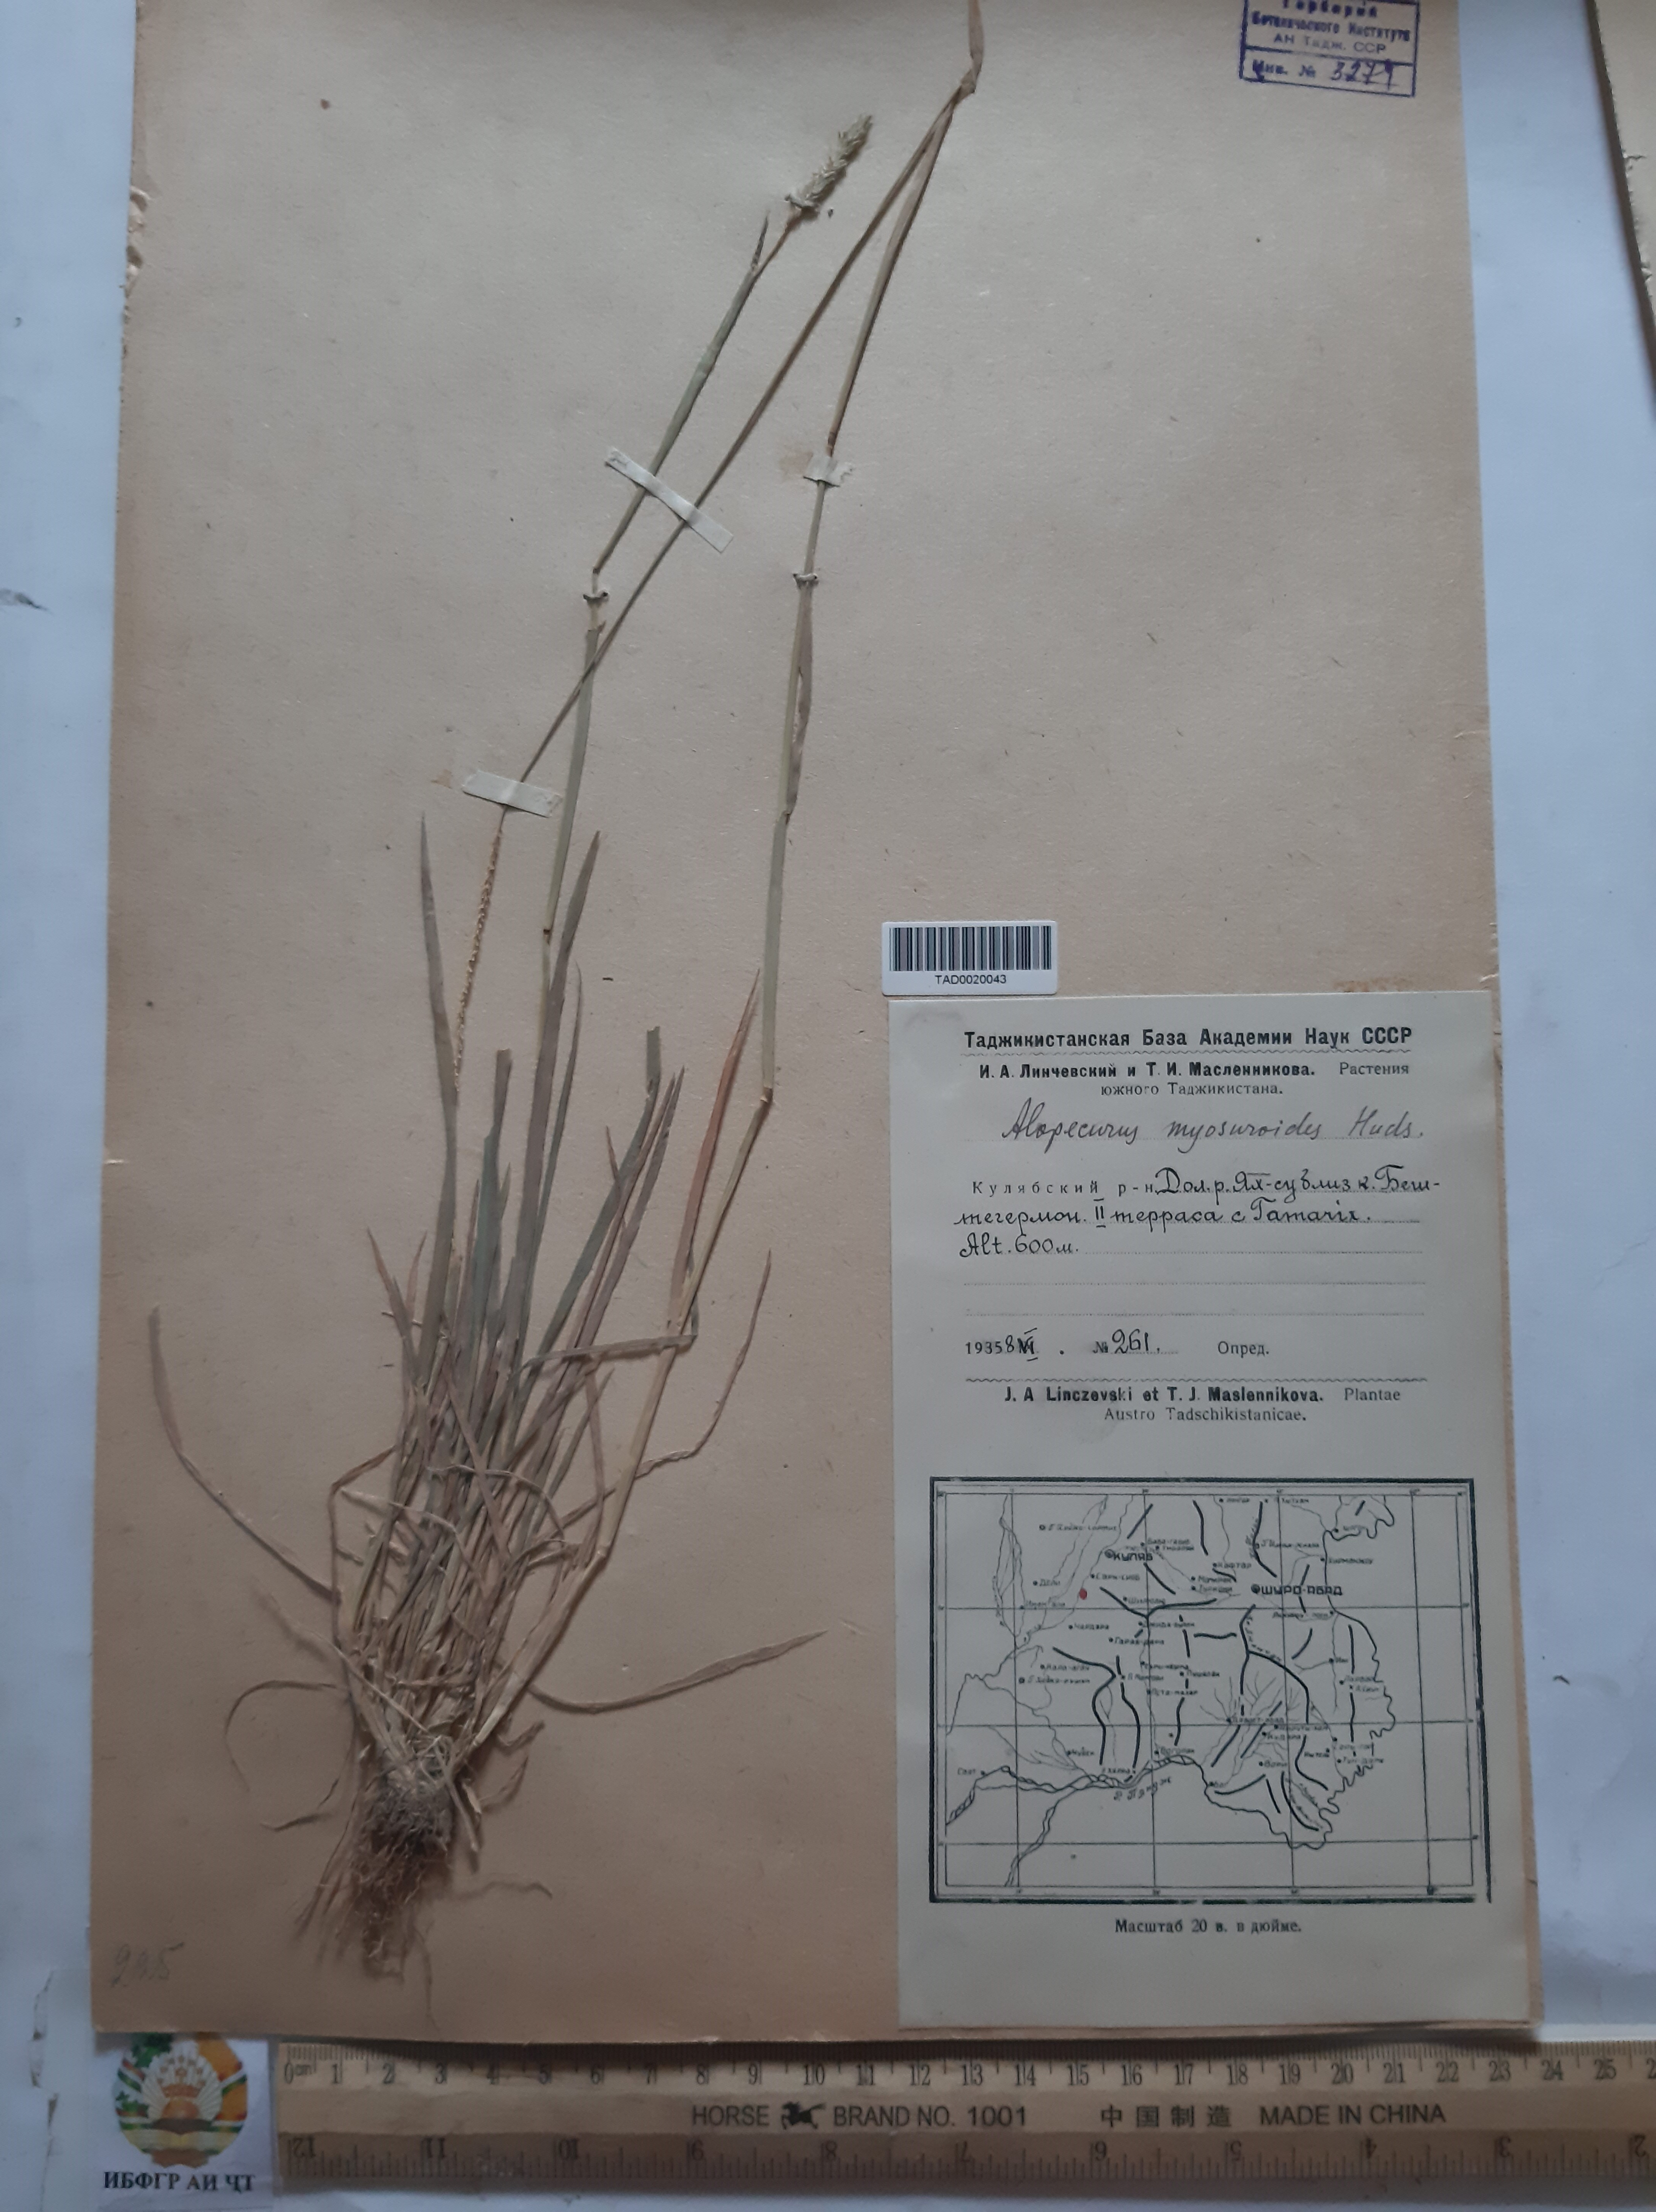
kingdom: Plantae
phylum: Tracheophyta
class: Liliopsida
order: Poales
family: Poaceae
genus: Alopecurus
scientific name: Alopecurus myosuroides
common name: Black-grass
